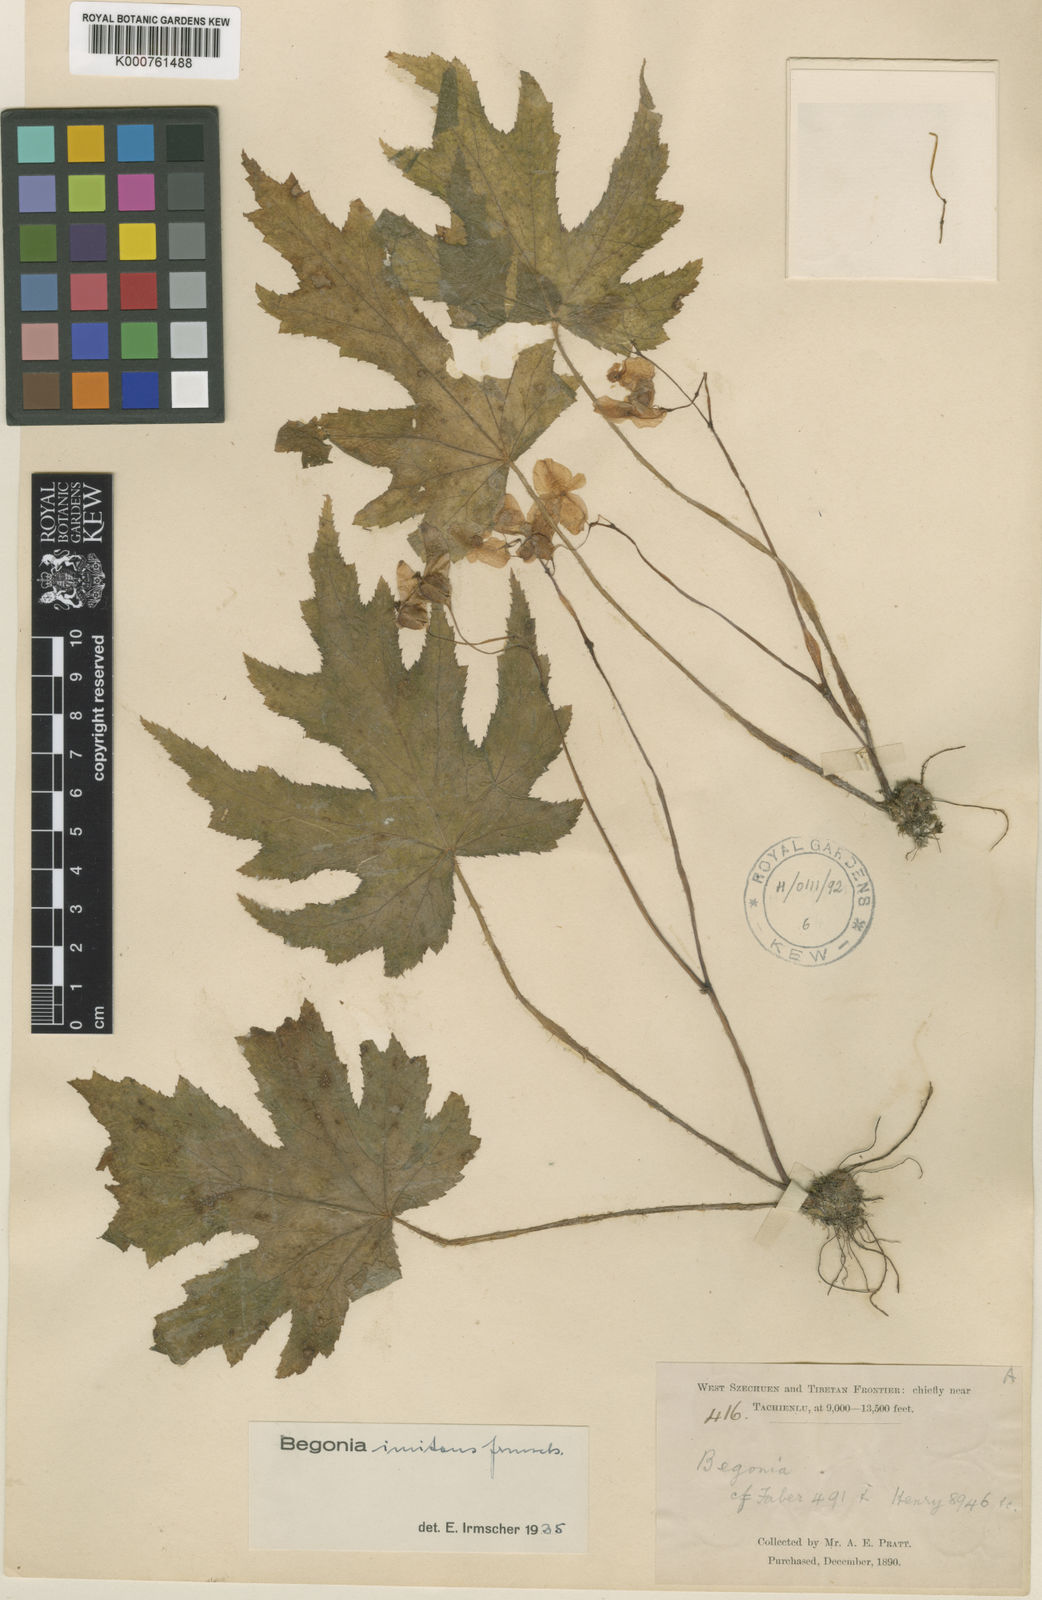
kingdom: Plantae
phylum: Tracheophyta
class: Magnoliopsida
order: Cucurbitales
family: Begoniaceae
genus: Begonia
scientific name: Begonia imitans
